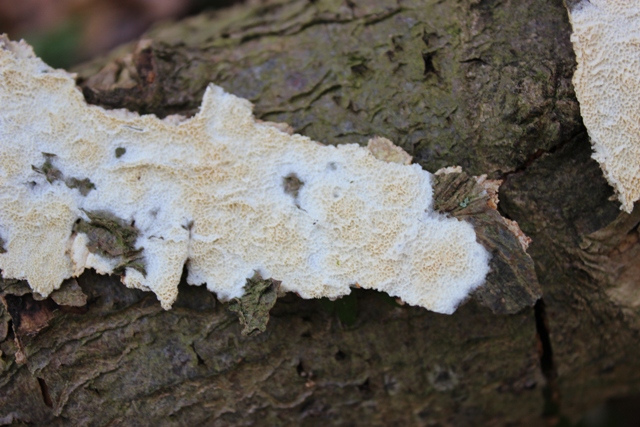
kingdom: Fungi
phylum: Basidiomycota
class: Agaricomycetes
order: Polyporales
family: Irpicaceae
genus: Byssomerulius
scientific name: Byssomerulius corium
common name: læder-åresvamp
